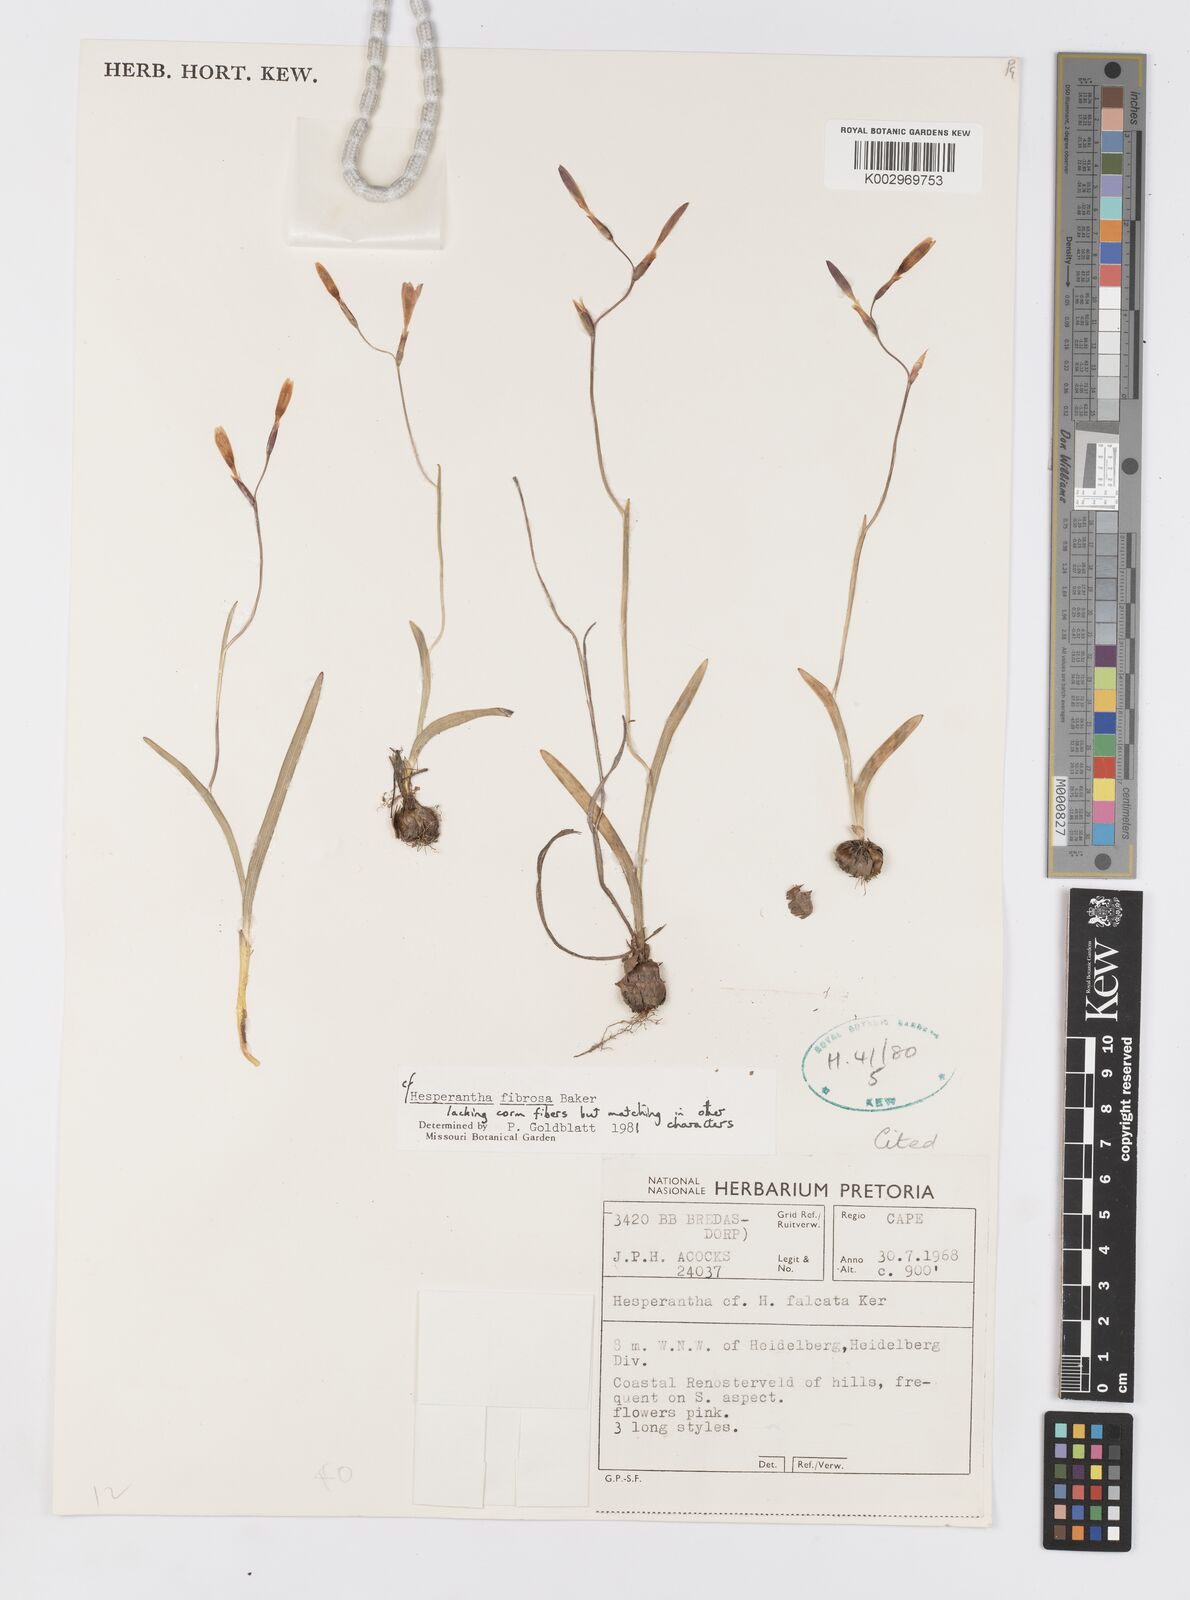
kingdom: Plantae
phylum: Tracheophyta
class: Liliopsida
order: Asparagales
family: Iridaceae
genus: Hesperantha
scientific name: Hesperantha fibrosa
